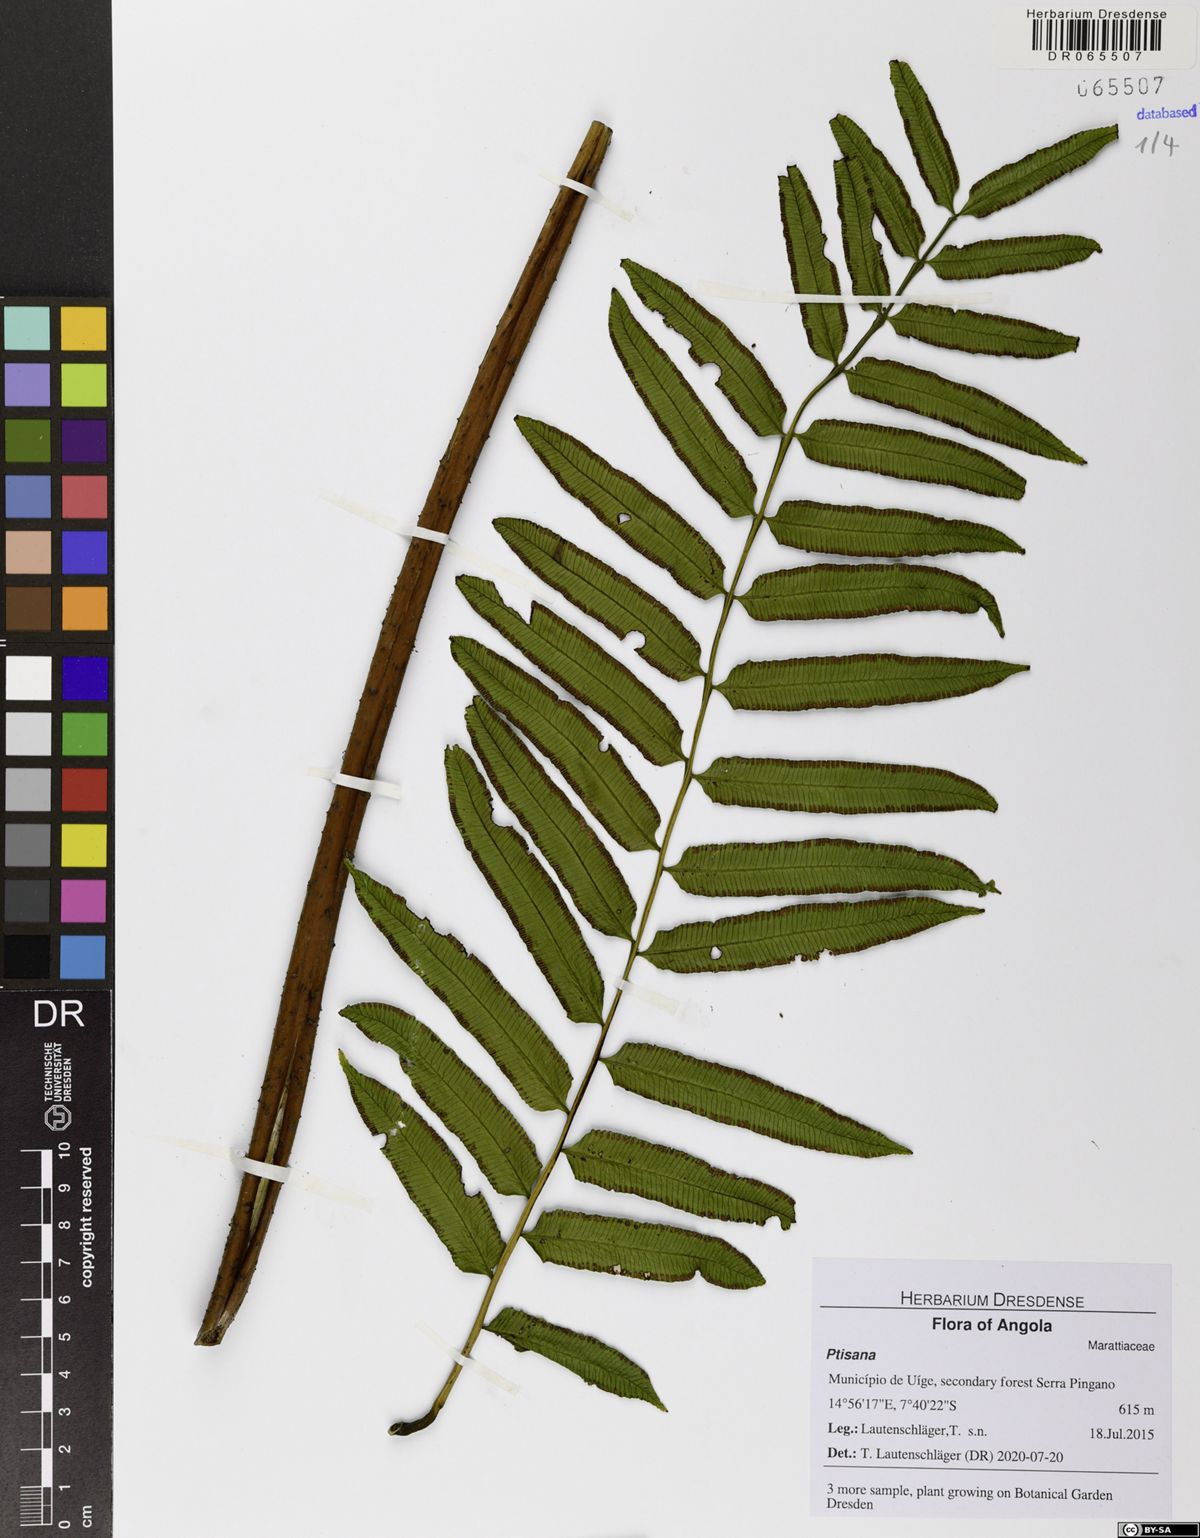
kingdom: Plantae
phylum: Tracheophyta
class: Polypodiopsida
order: Marattiales
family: Marattiaceae
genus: Ptisana
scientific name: Ptisana
